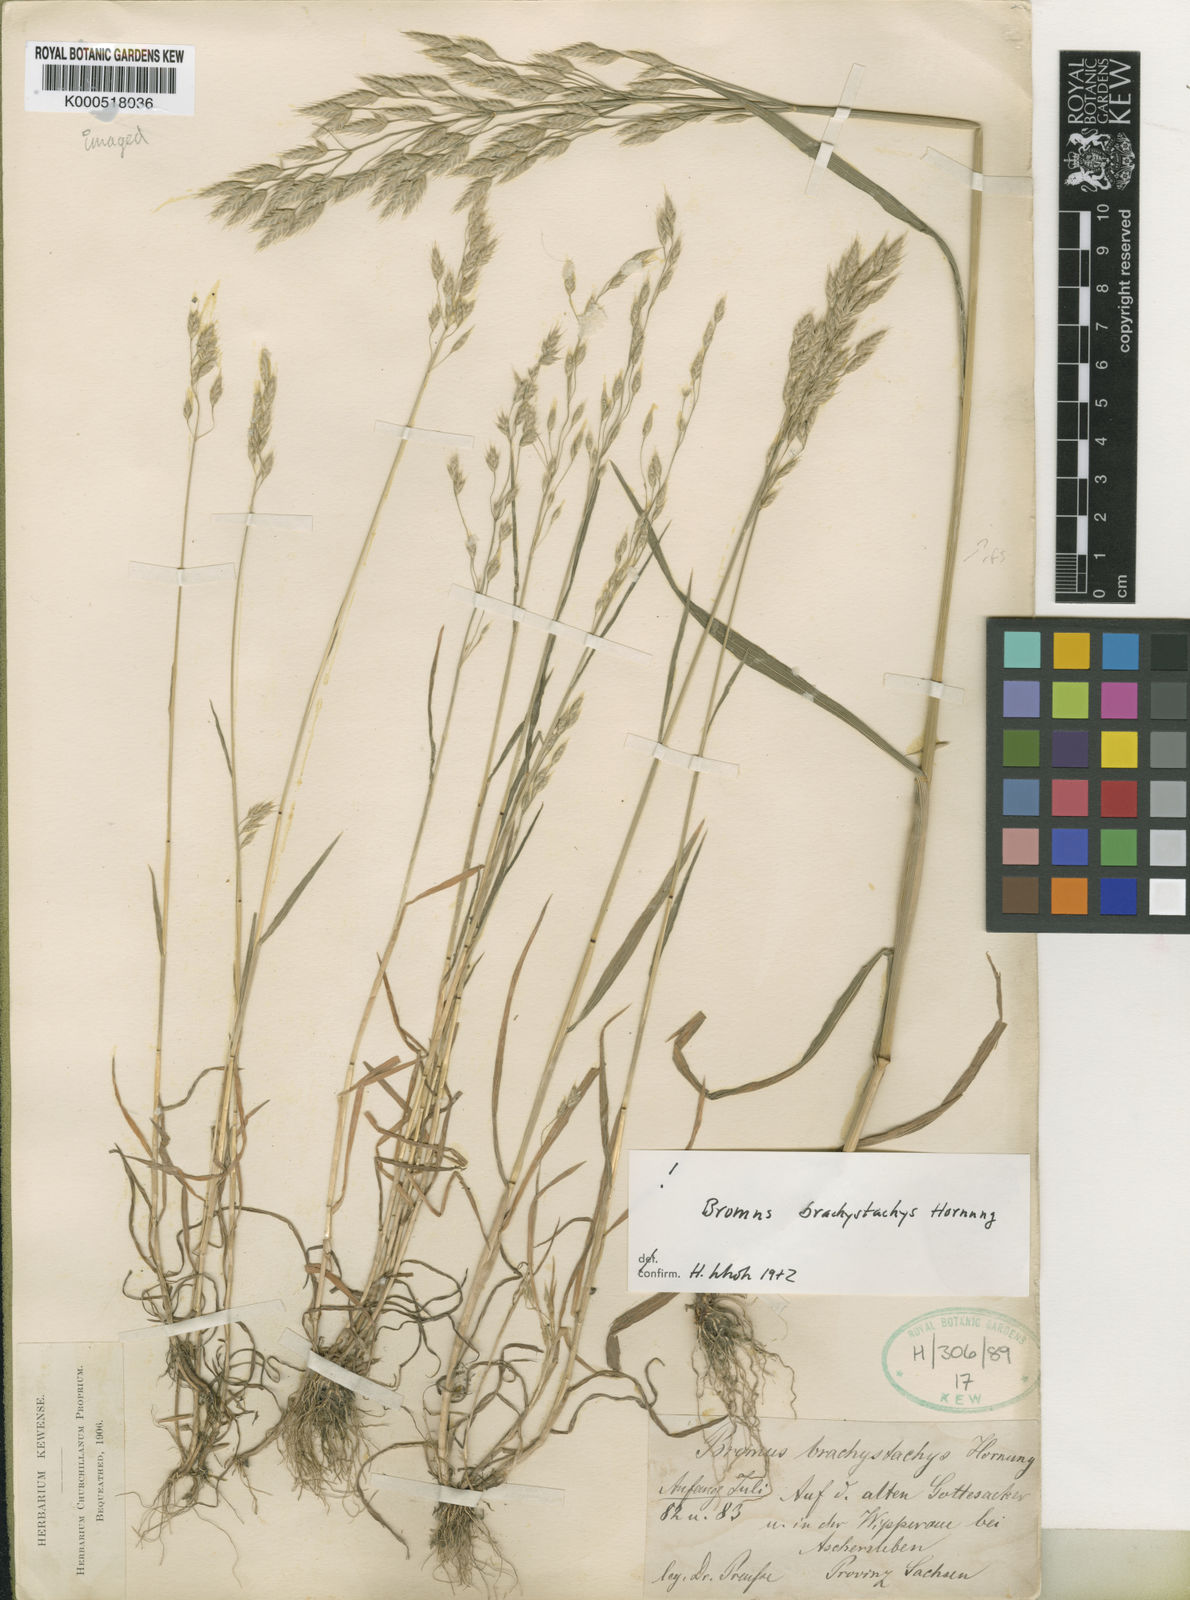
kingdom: Plantae
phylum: Tracheophyta
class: Liliopsida
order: Poales
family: Poaceae
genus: Bromus
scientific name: Bromus brachystachys
